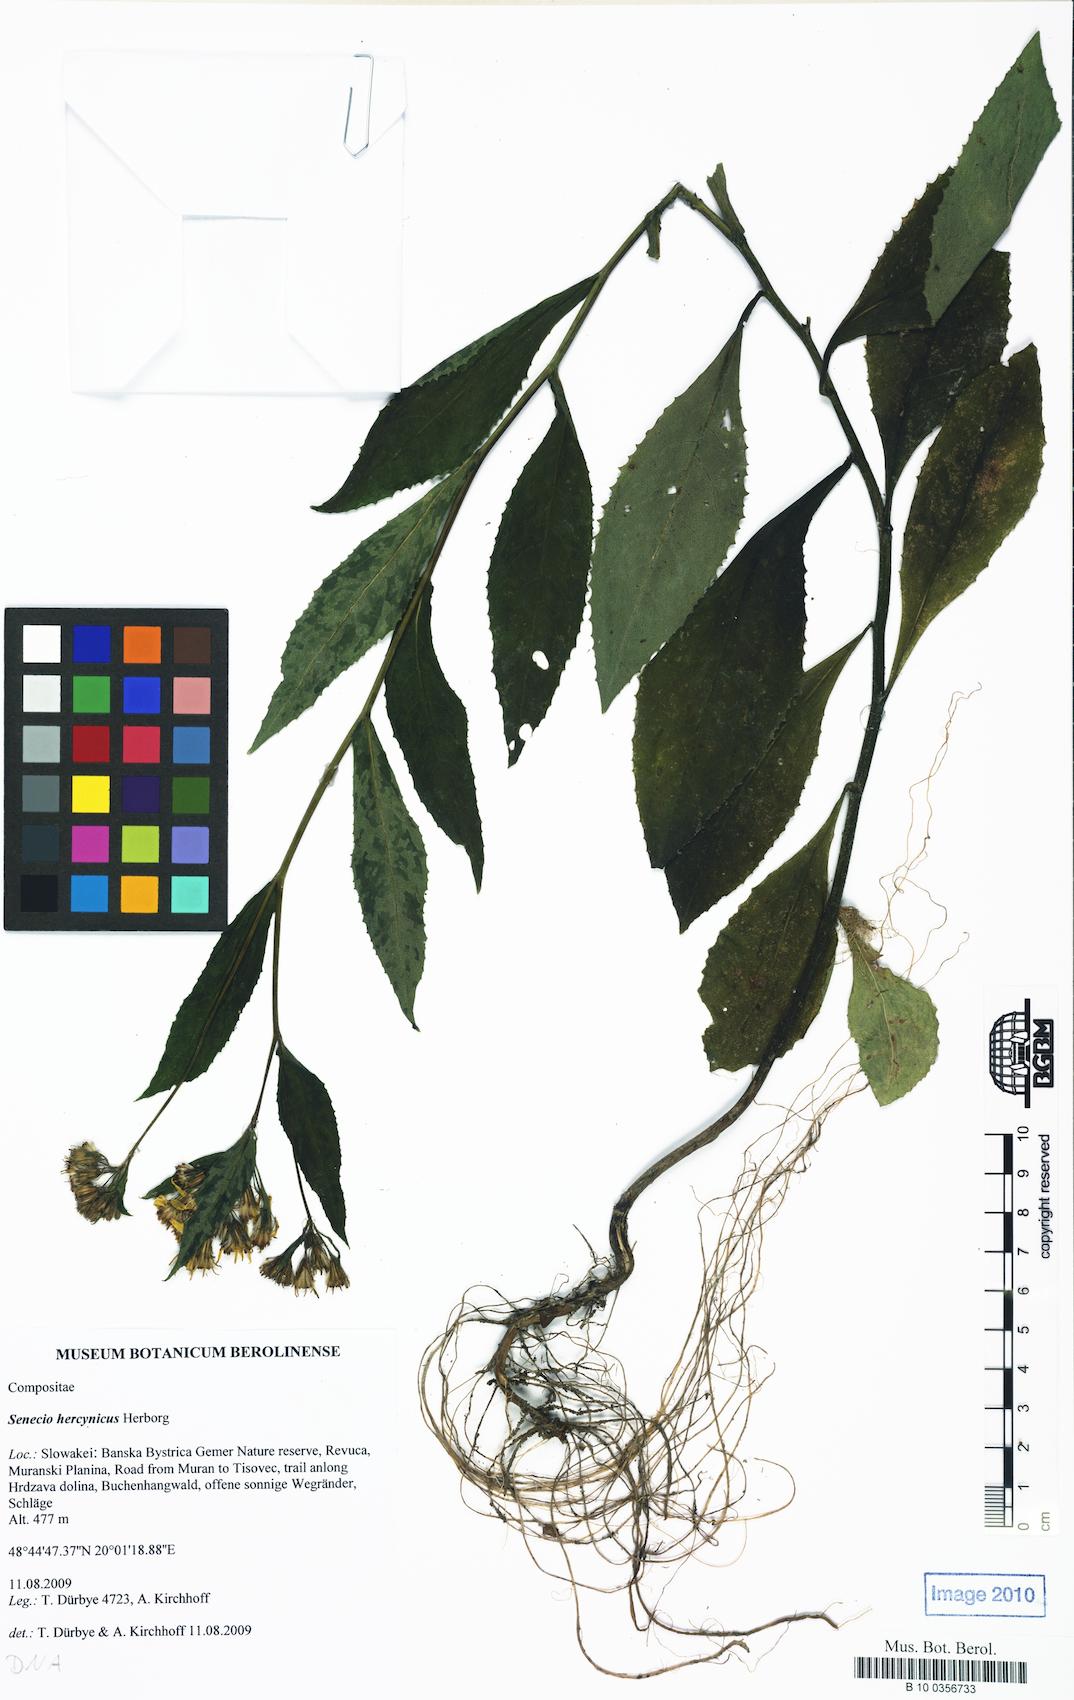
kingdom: Plantae
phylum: Tracheophyta
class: Magnoliopsida
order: Asterales
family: Asteraceae
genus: Senecio
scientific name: Senecio hercynicus
